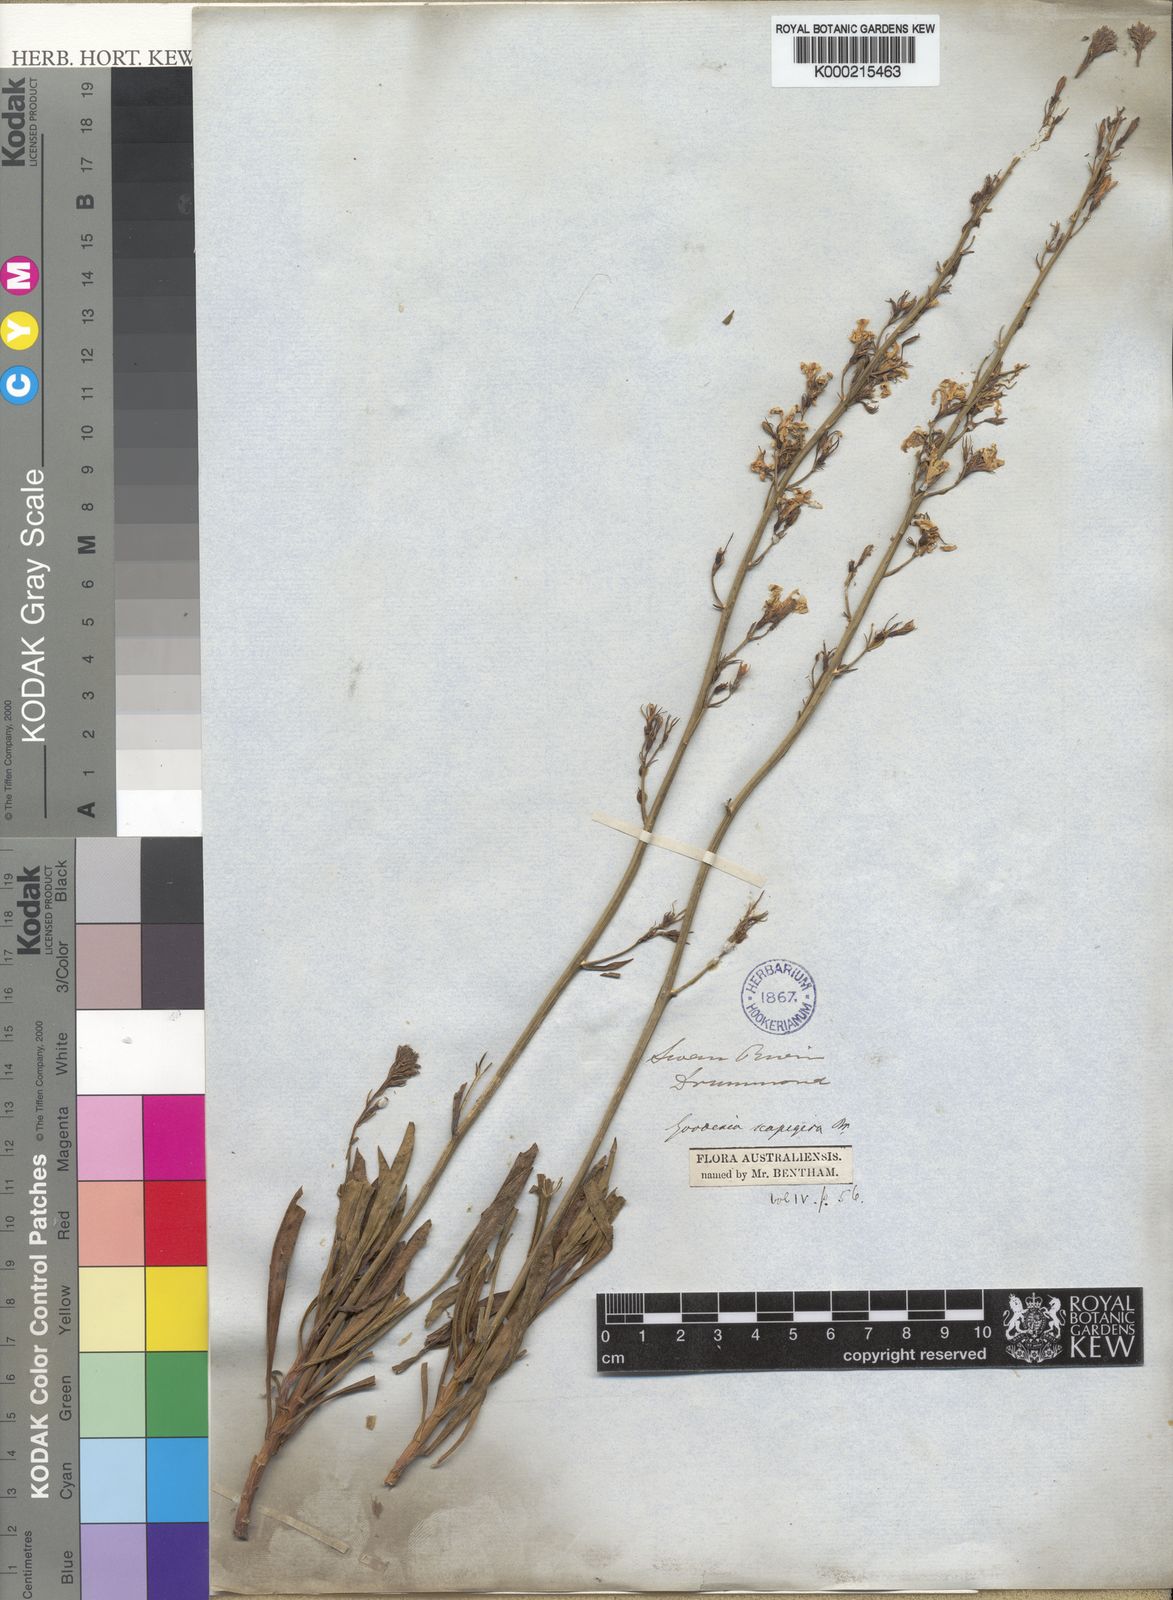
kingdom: Plantae
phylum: Tracheophyta
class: Magnoliopsida
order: Asterales
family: Goodeniaceae
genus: Goodenia
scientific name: Goodenia scapigera
